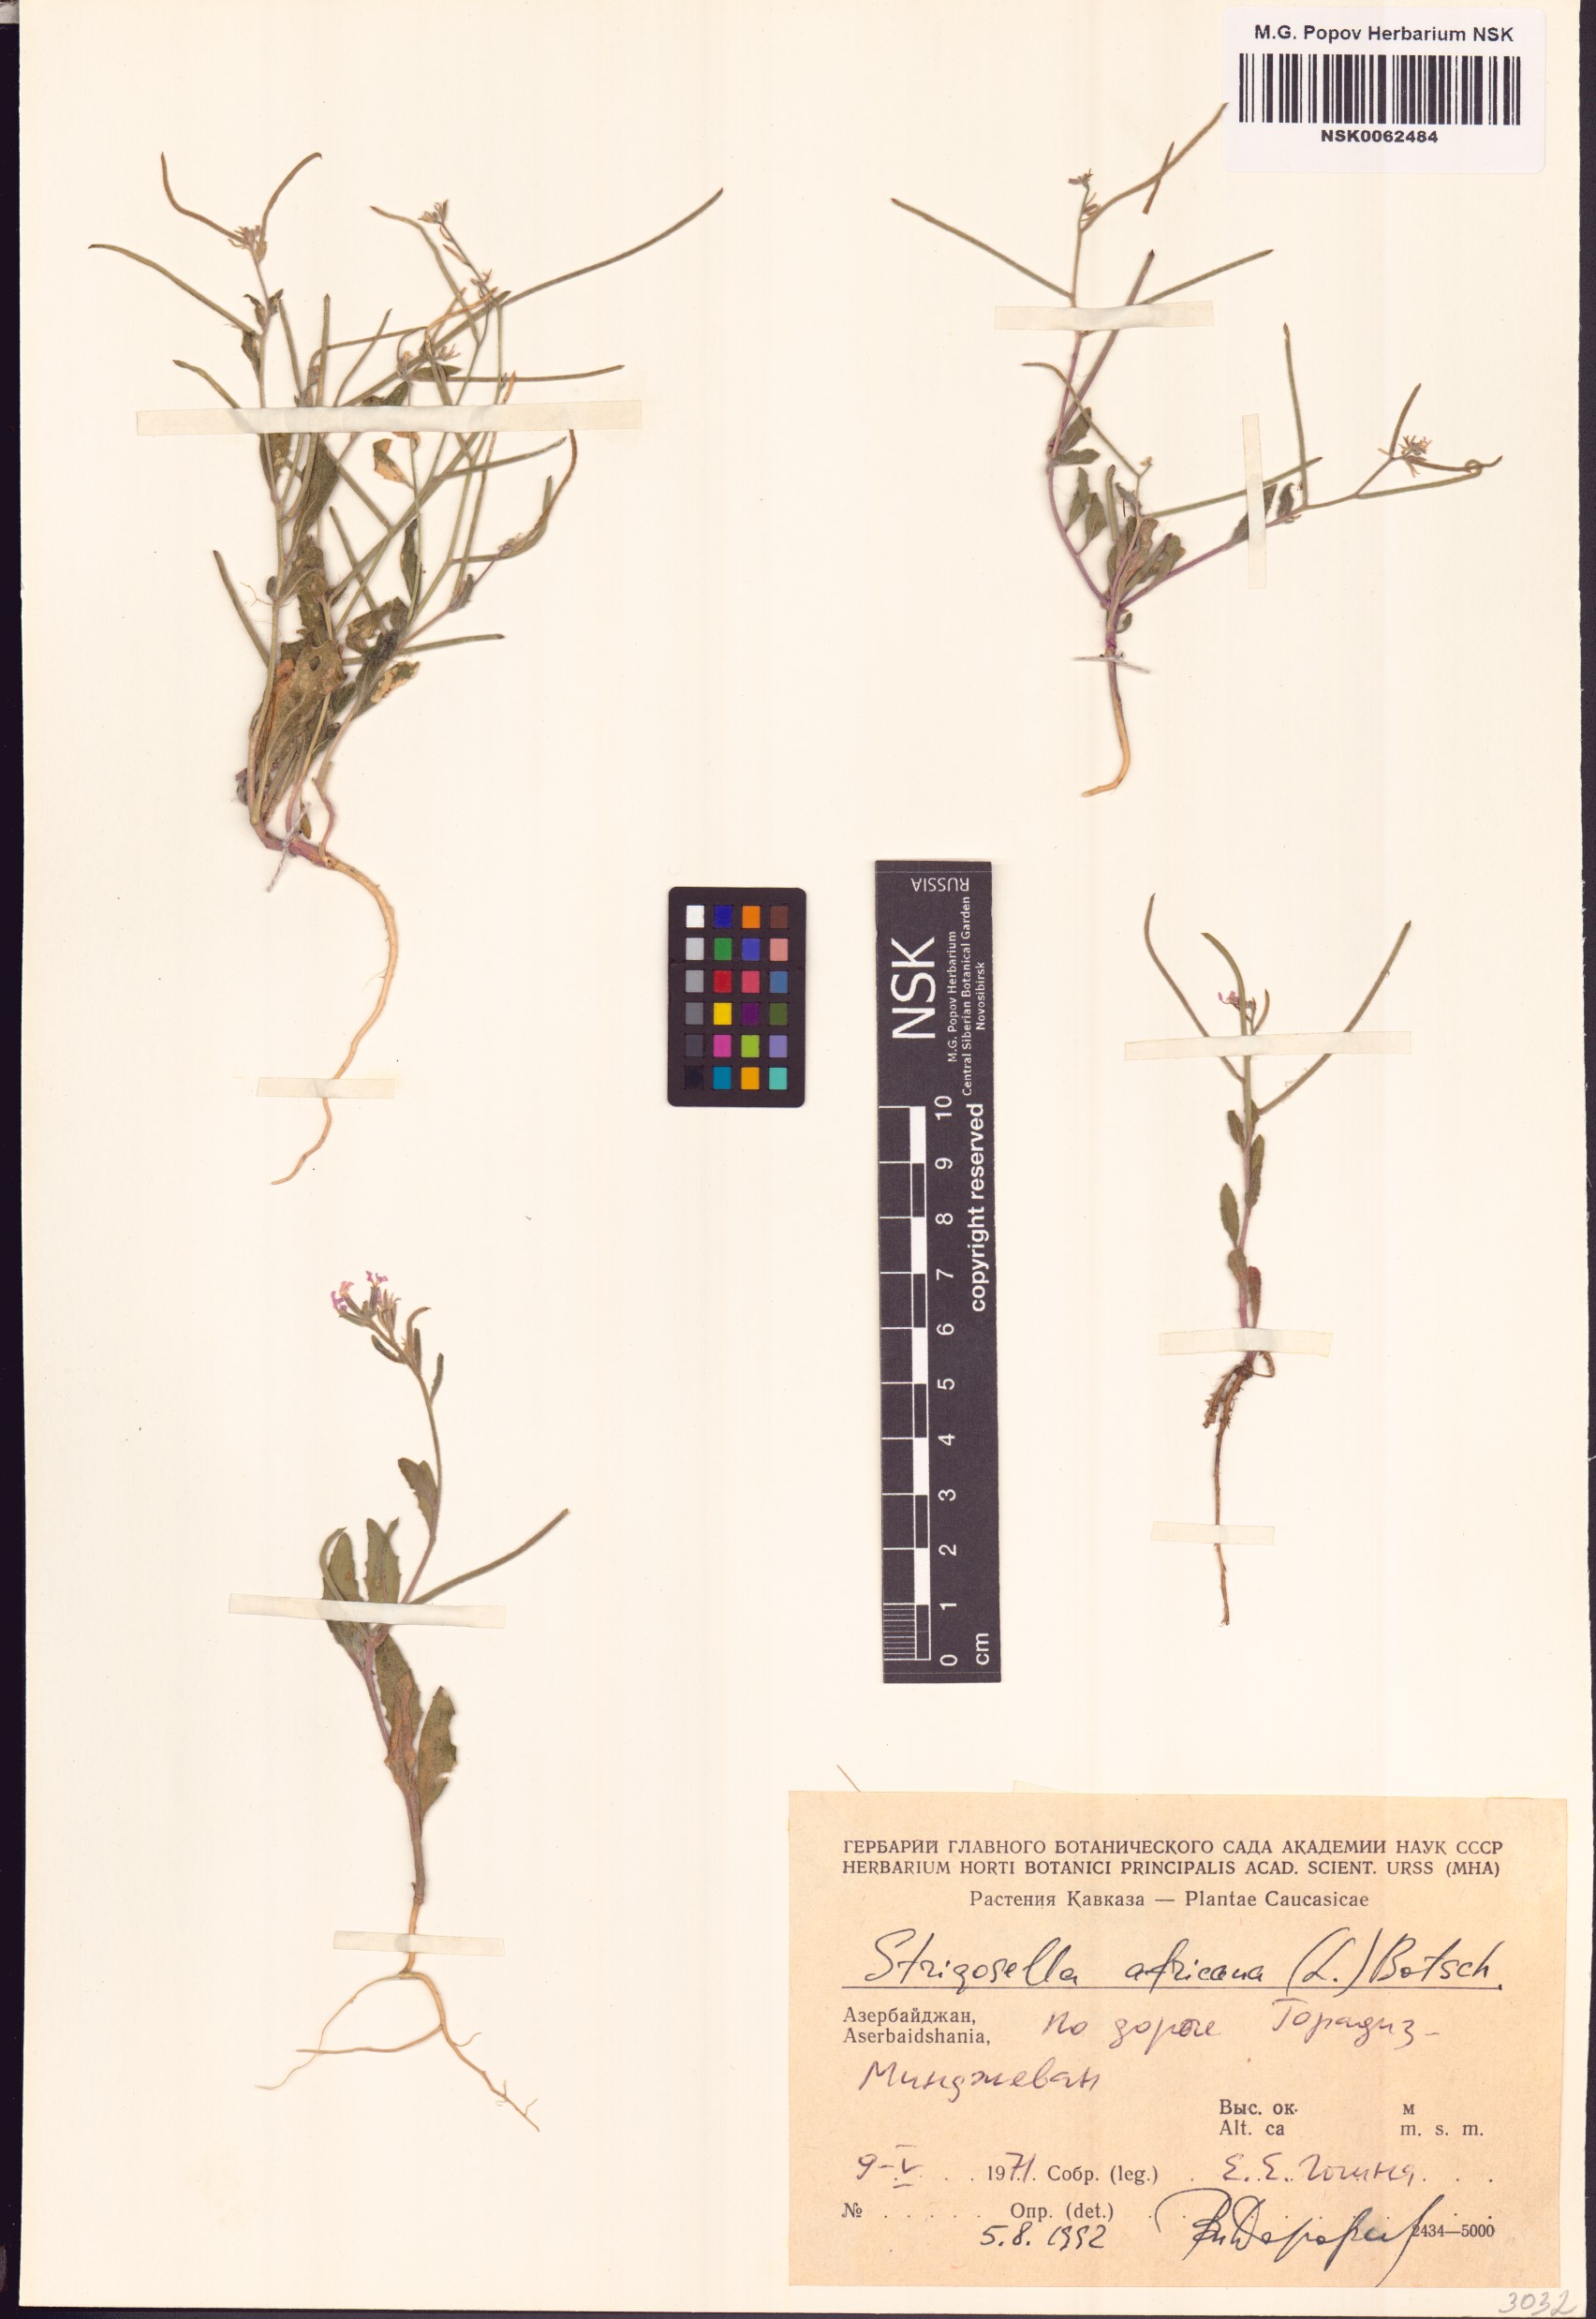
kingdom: Plantae
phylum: Tracheophyta
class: Magnoliopsida
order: Brassicales
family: Brassicaceae
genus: Strigosella
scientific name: Strigosella africana
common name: African mustard
